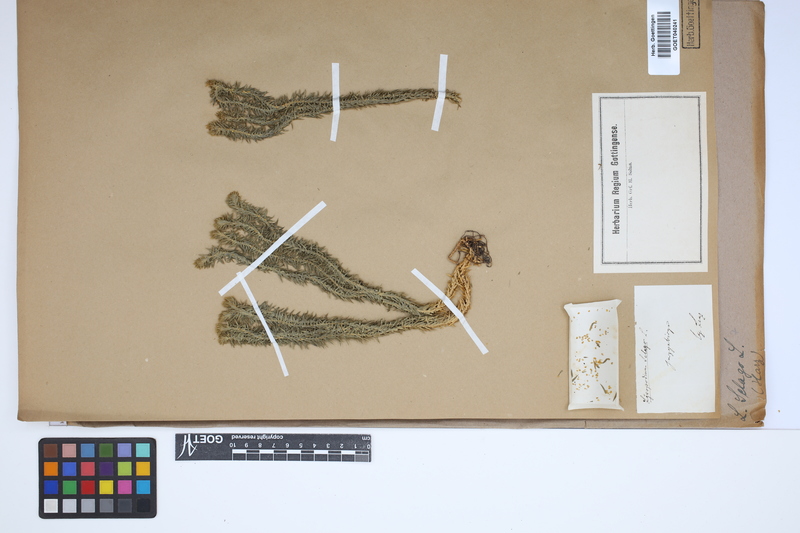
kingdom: Plantae
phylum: Tracheophyta
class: Lycopodiopsida
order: Lycopodiales
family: Lycopodiaceae
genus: Huperzia
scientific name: Huperzia selago
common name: Northern firmoss
